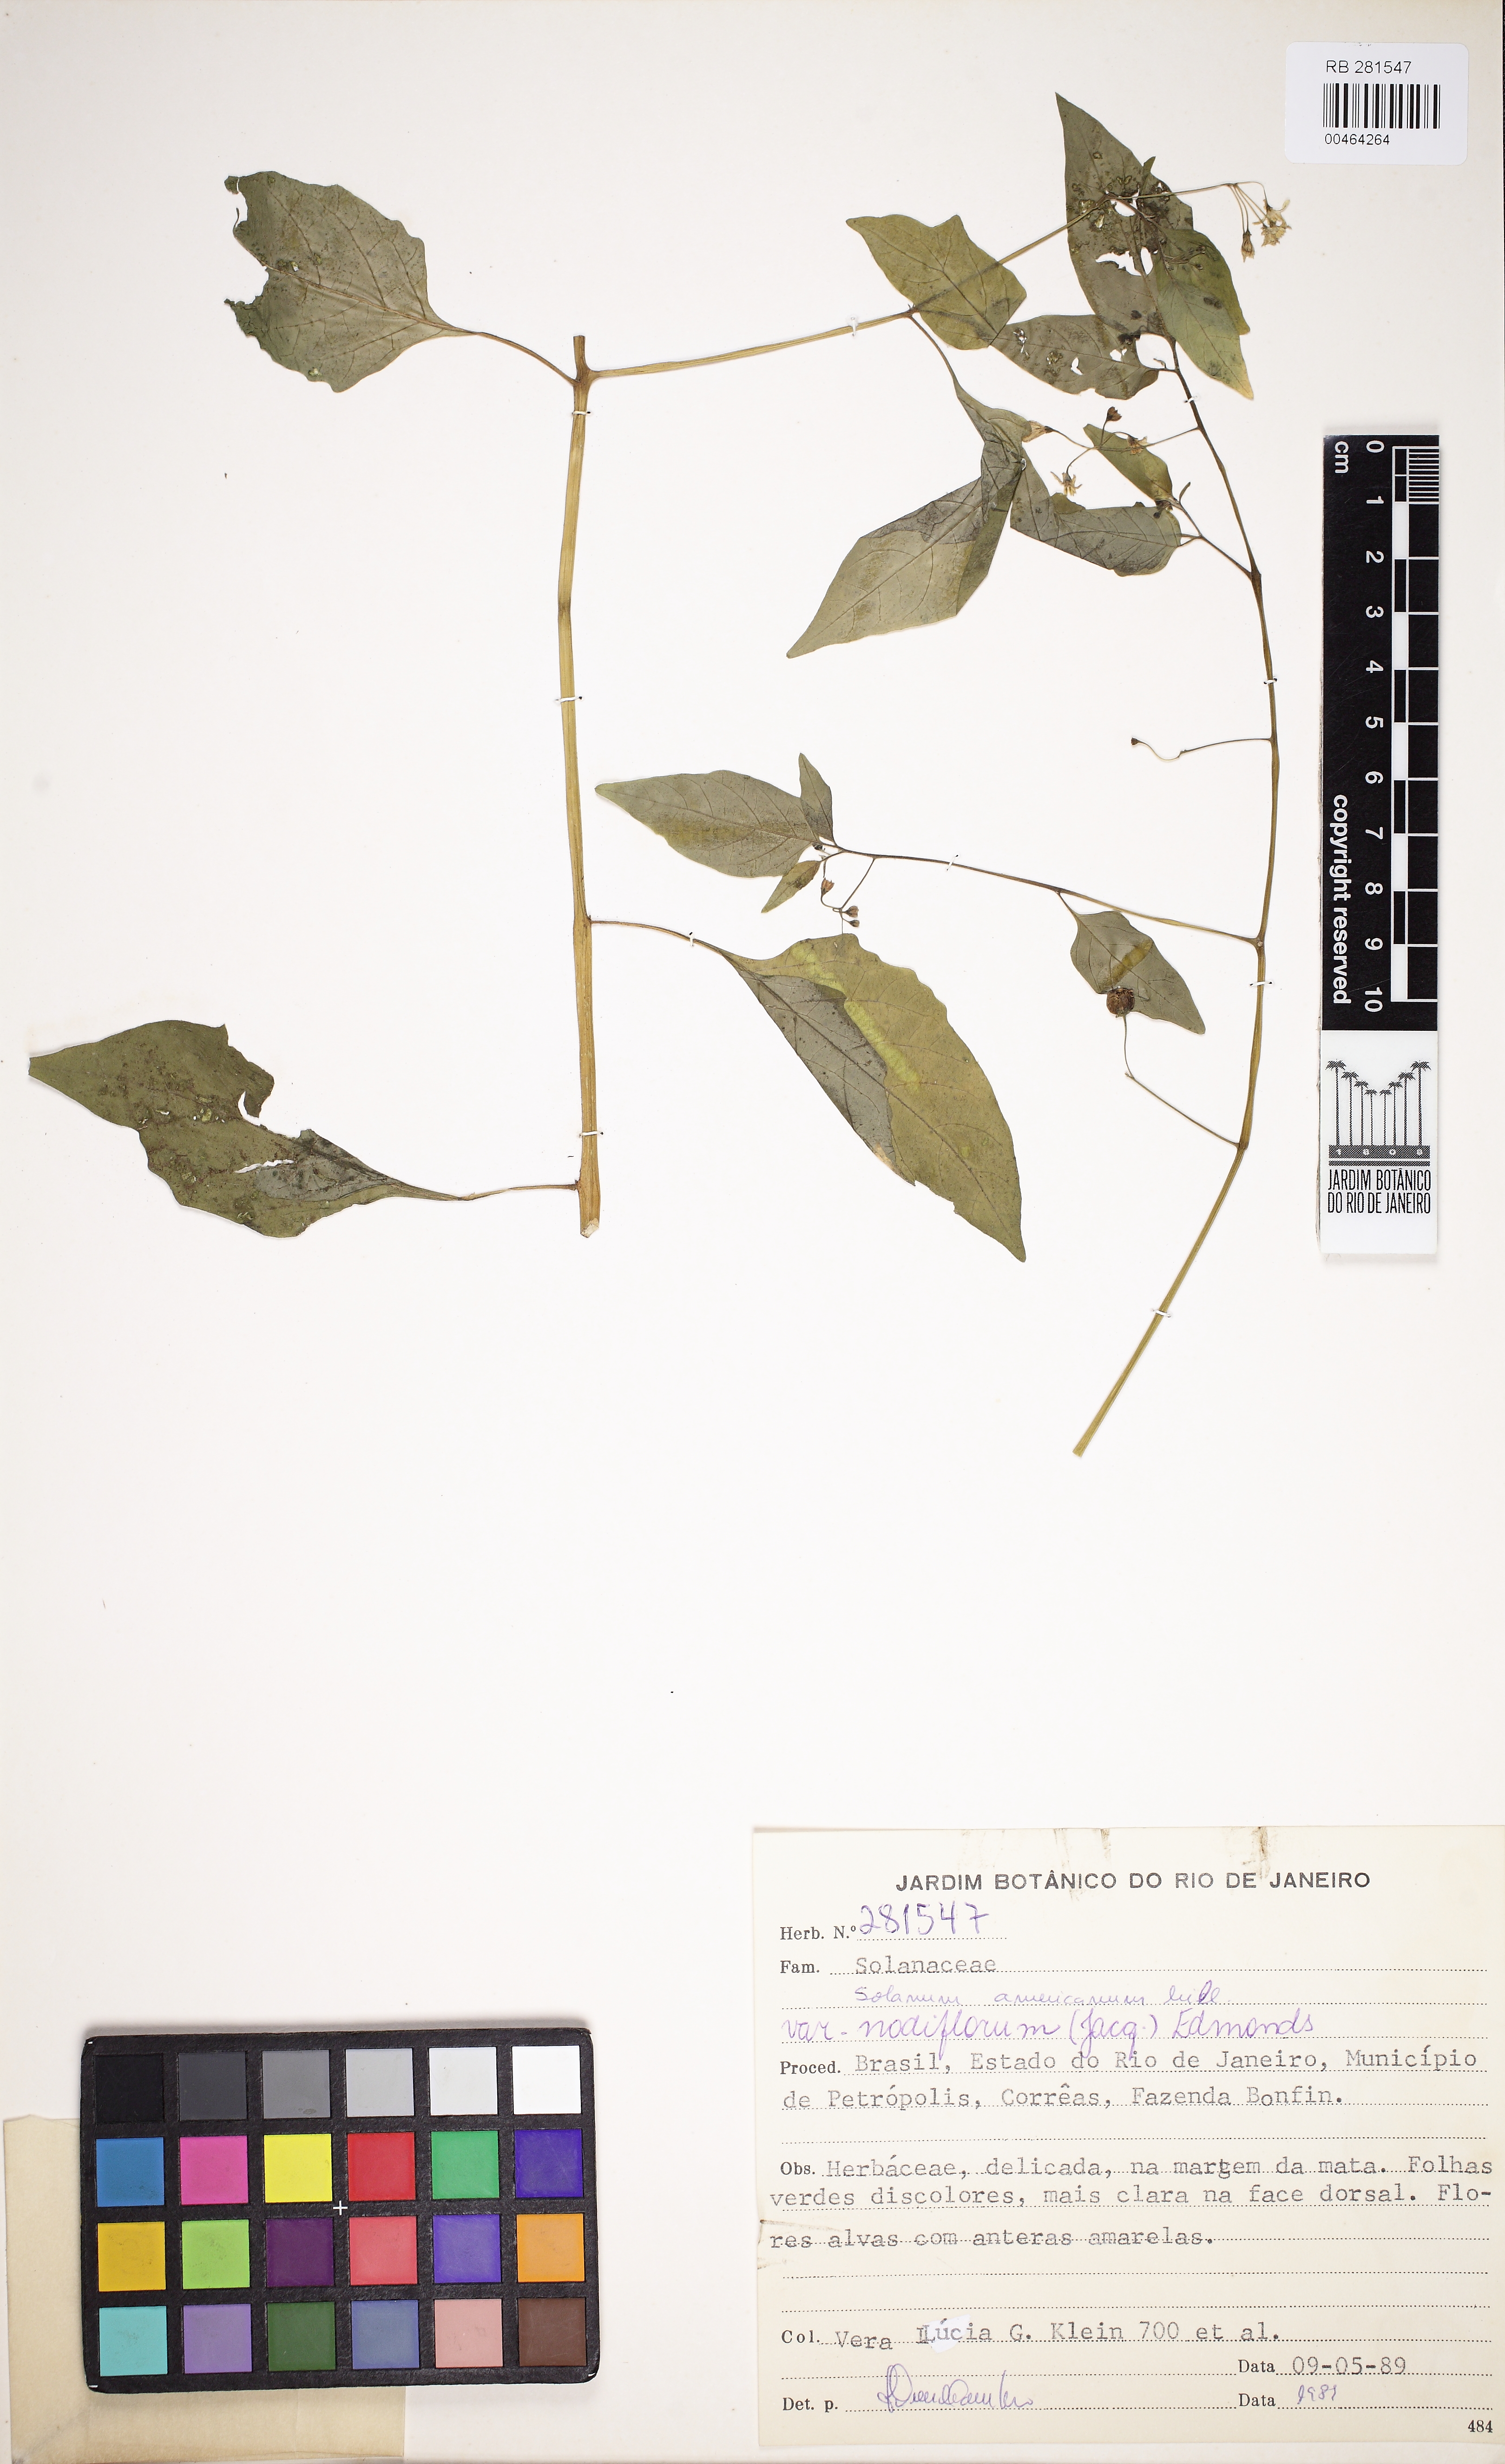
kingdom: Plantae
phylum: Tracheophyta
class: Magnoliopsida
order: Solanales
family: Solanaceae
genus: Solanum
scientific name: Solanum americanum
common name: American black nightshade
